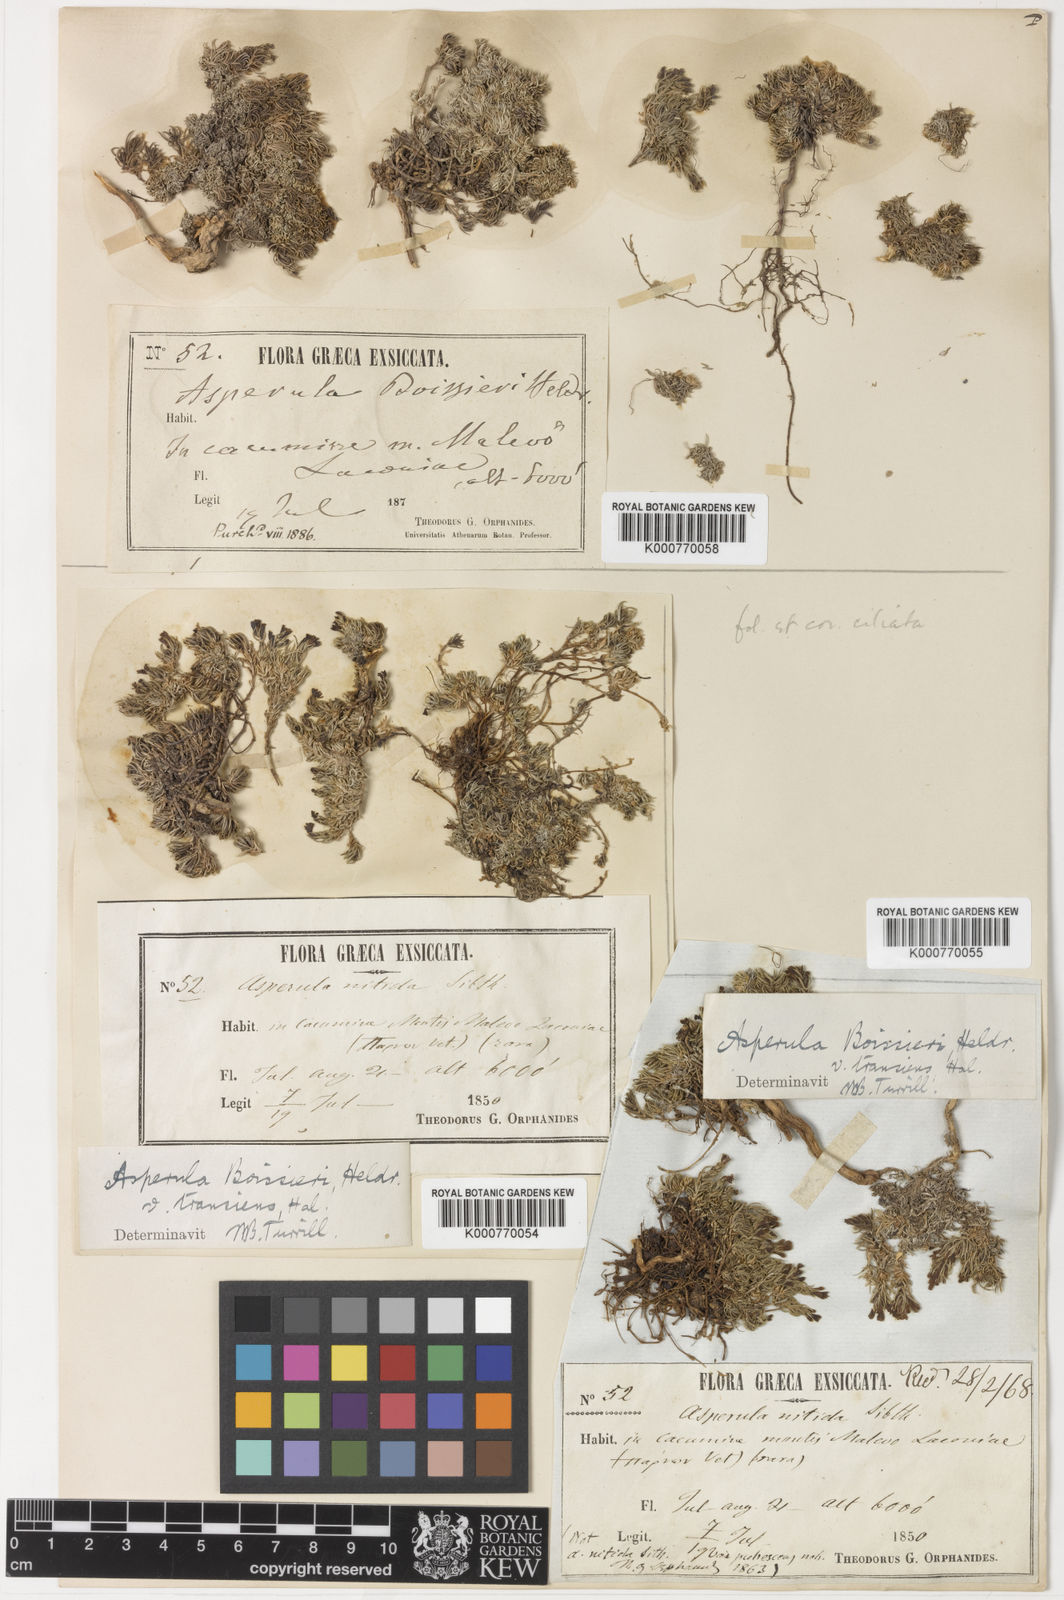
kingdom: Plantae
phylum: Tracheophyta
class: Magnoliopsida
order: Gentianales
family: Rubiaceae
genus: Cynanchica
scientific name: Cynanchica boissieri
